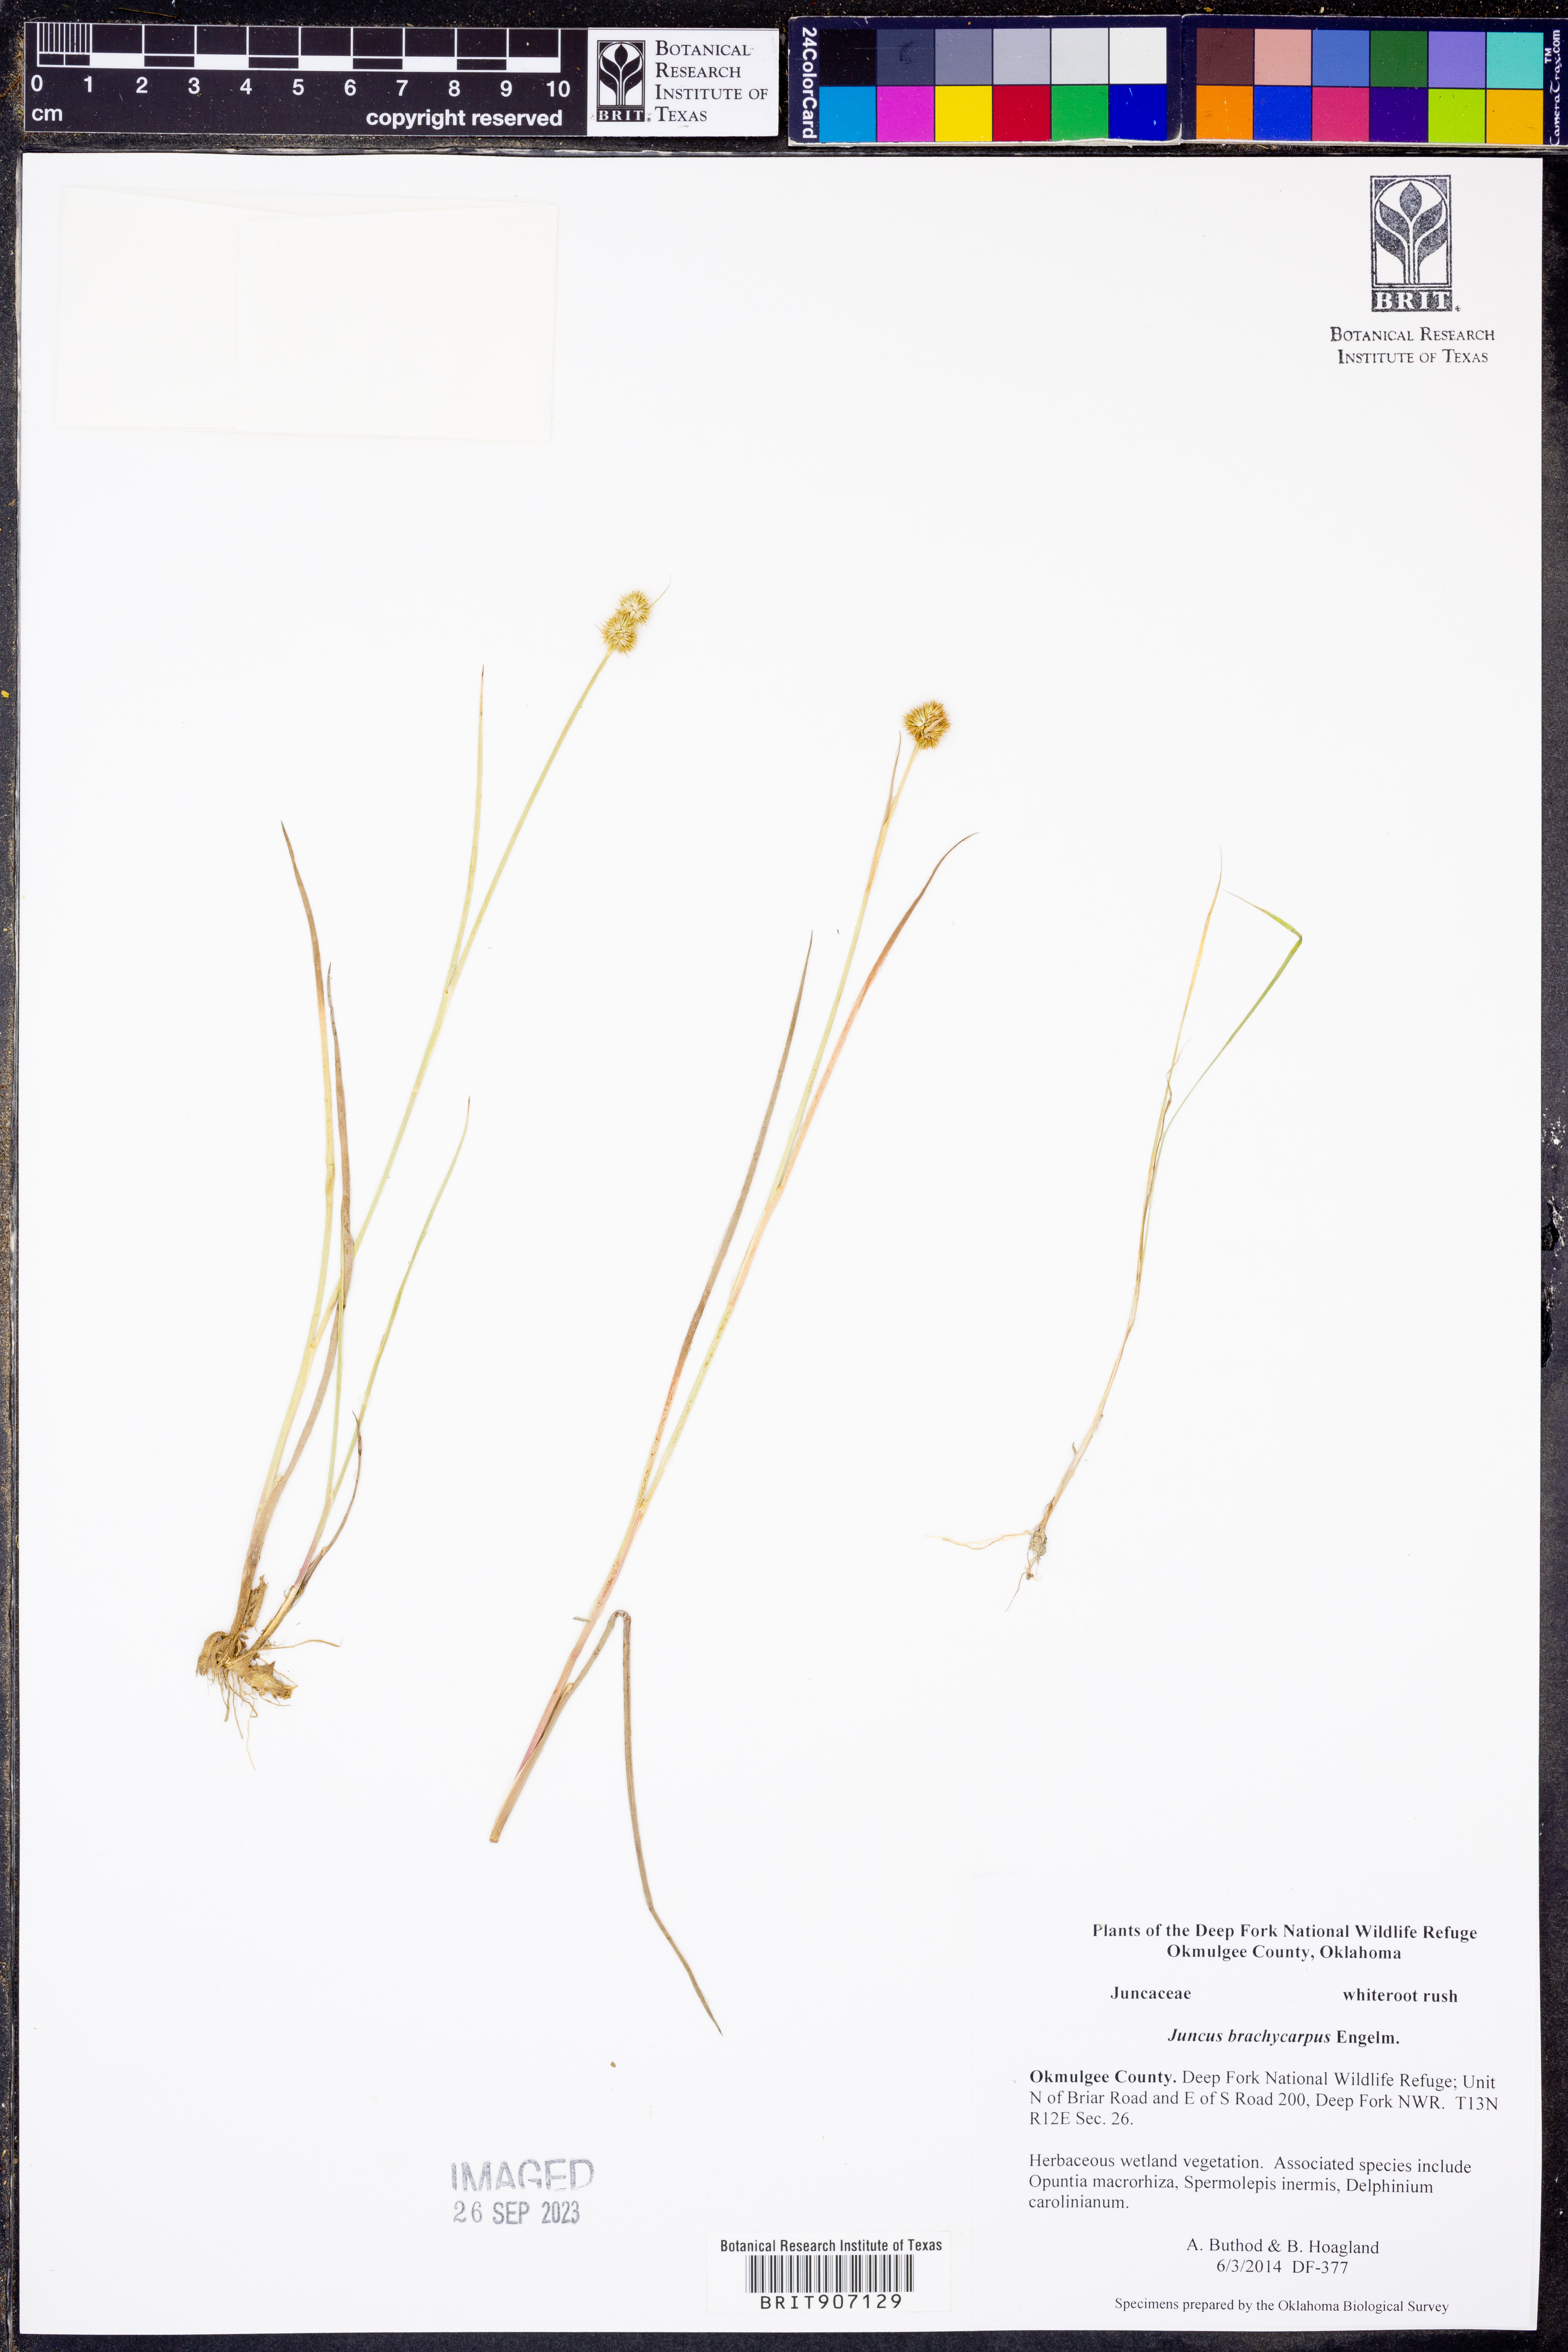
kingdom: Plantae
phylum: Tracheophyta
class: Liliopsida
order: Poales
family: Juncaceae
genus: Juncus
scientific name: Juncus brachycarpus
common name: Shore rush
